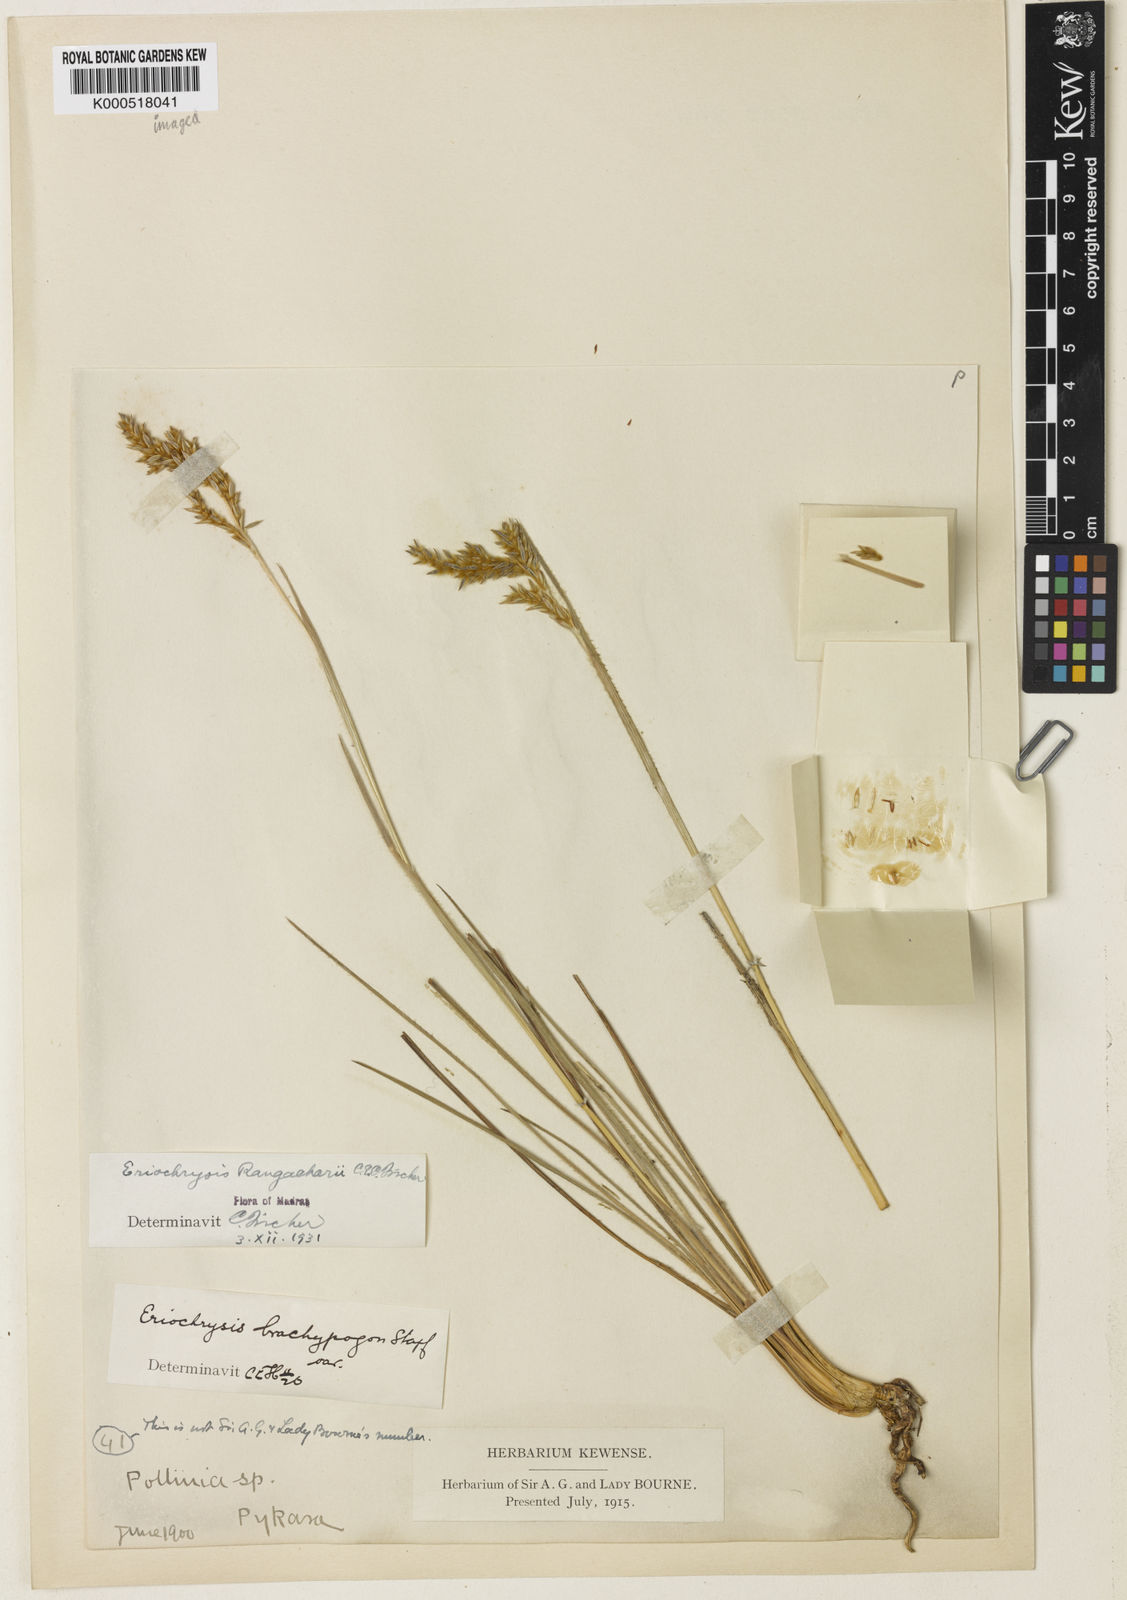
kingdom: Plantae
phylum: Tracheophyta
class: Liliopsida
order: Poales
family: Poaceae
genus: Eriochrysis
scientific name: Eriochrysis rangacharii
